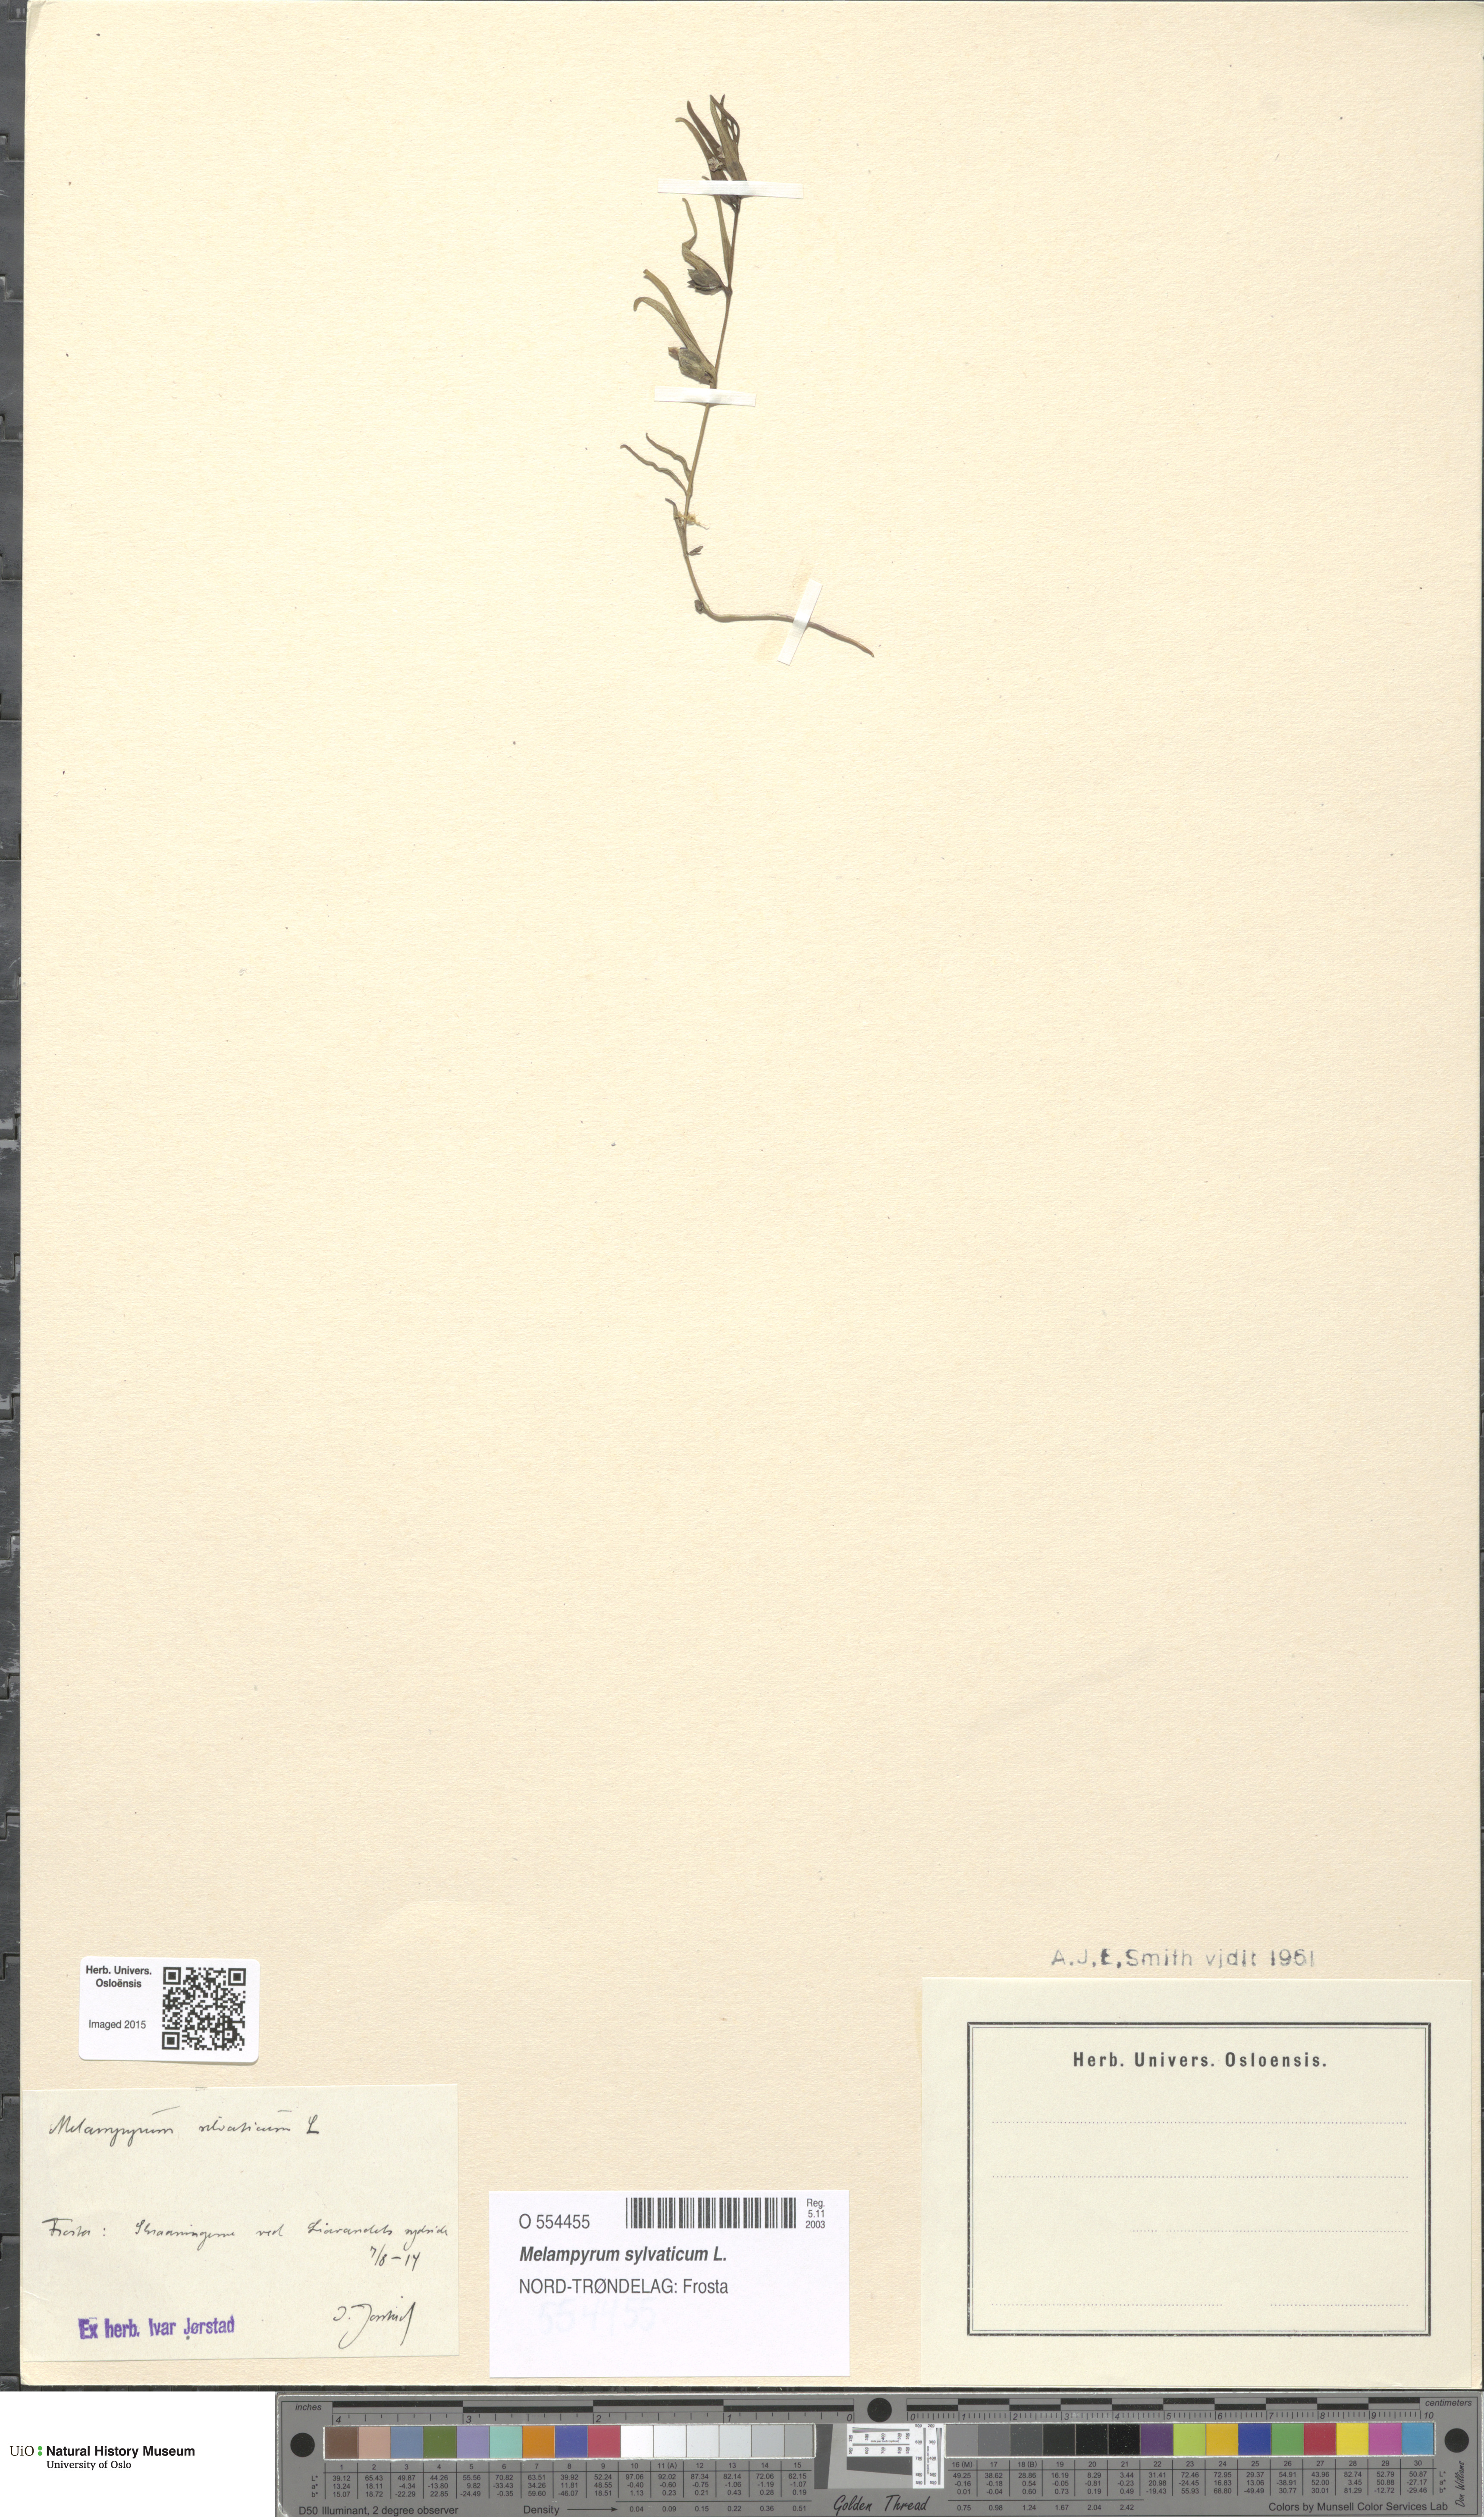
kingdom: Plantae
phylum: Tracheophyta
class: Magnoliopsida
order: Lamiales
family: Orobanchaceae
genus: Melampyrum
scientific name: Melampyrum sylvaticum
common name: Small cow-wheat
